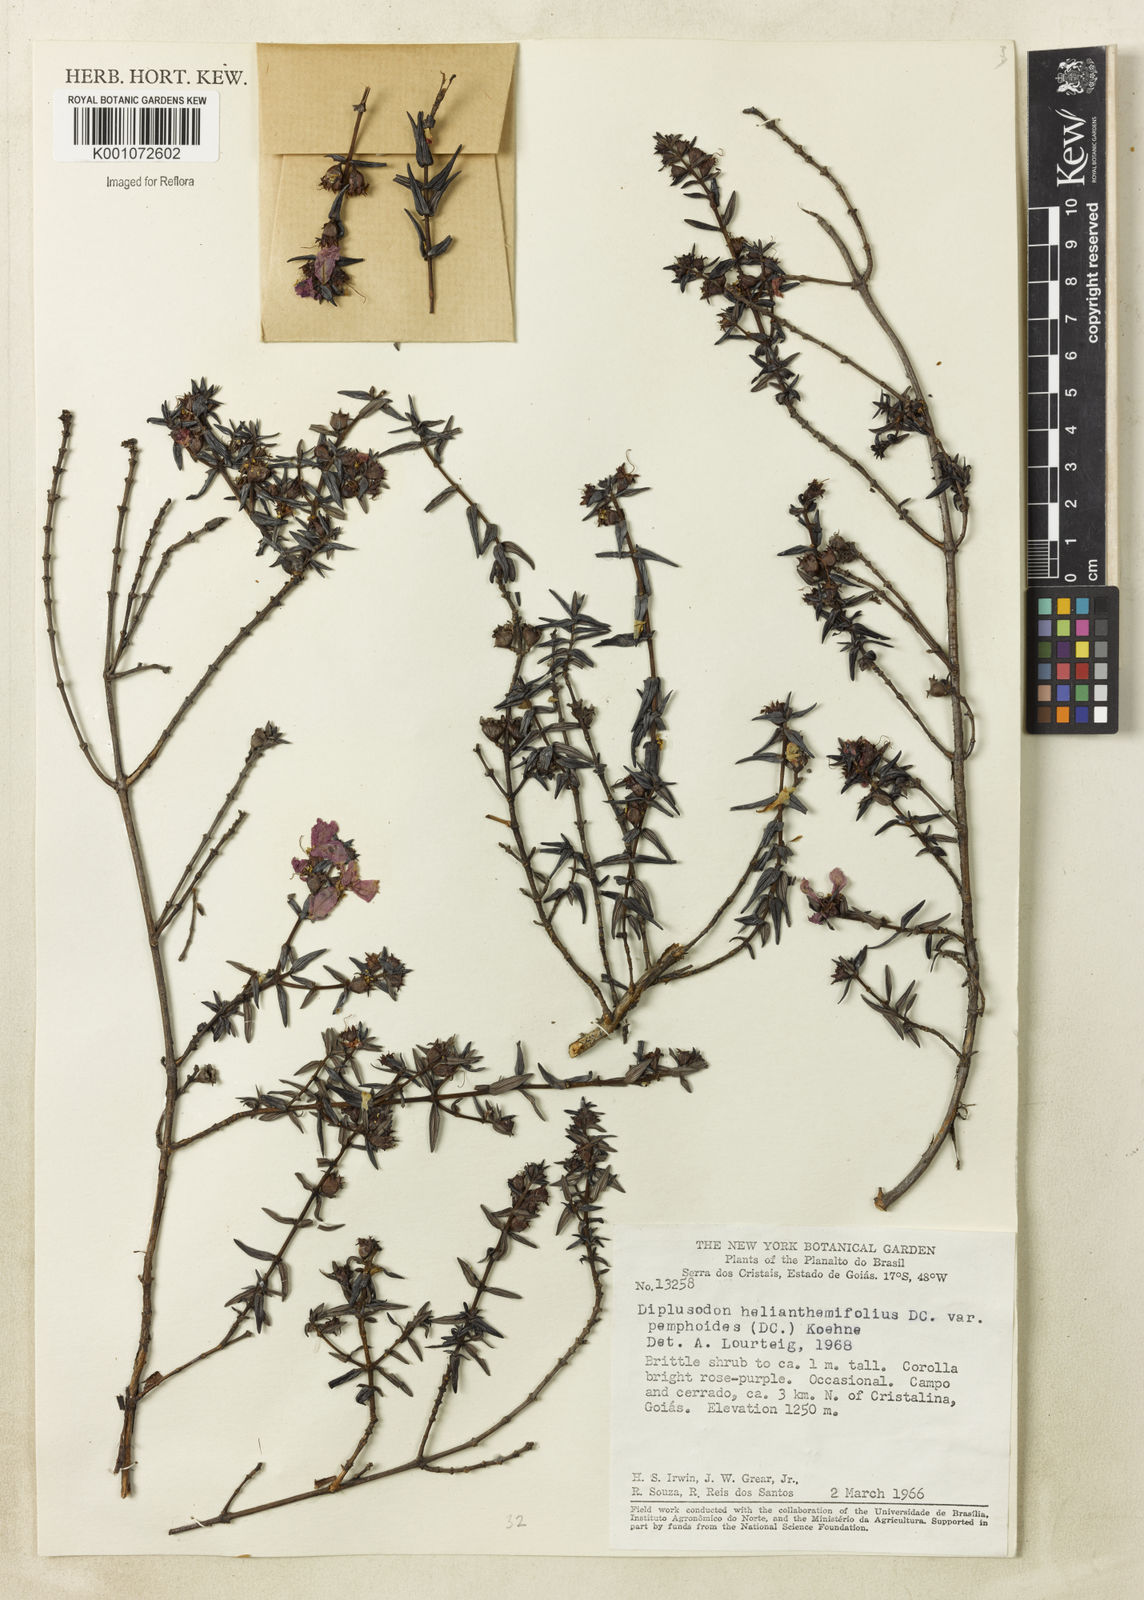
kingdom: Plantae
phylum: Tracheophyta
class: Magnoliopsida
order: Myrtales
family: Lythraceae
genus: Diplusodon
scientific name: Diplusodon helianthemifolius
